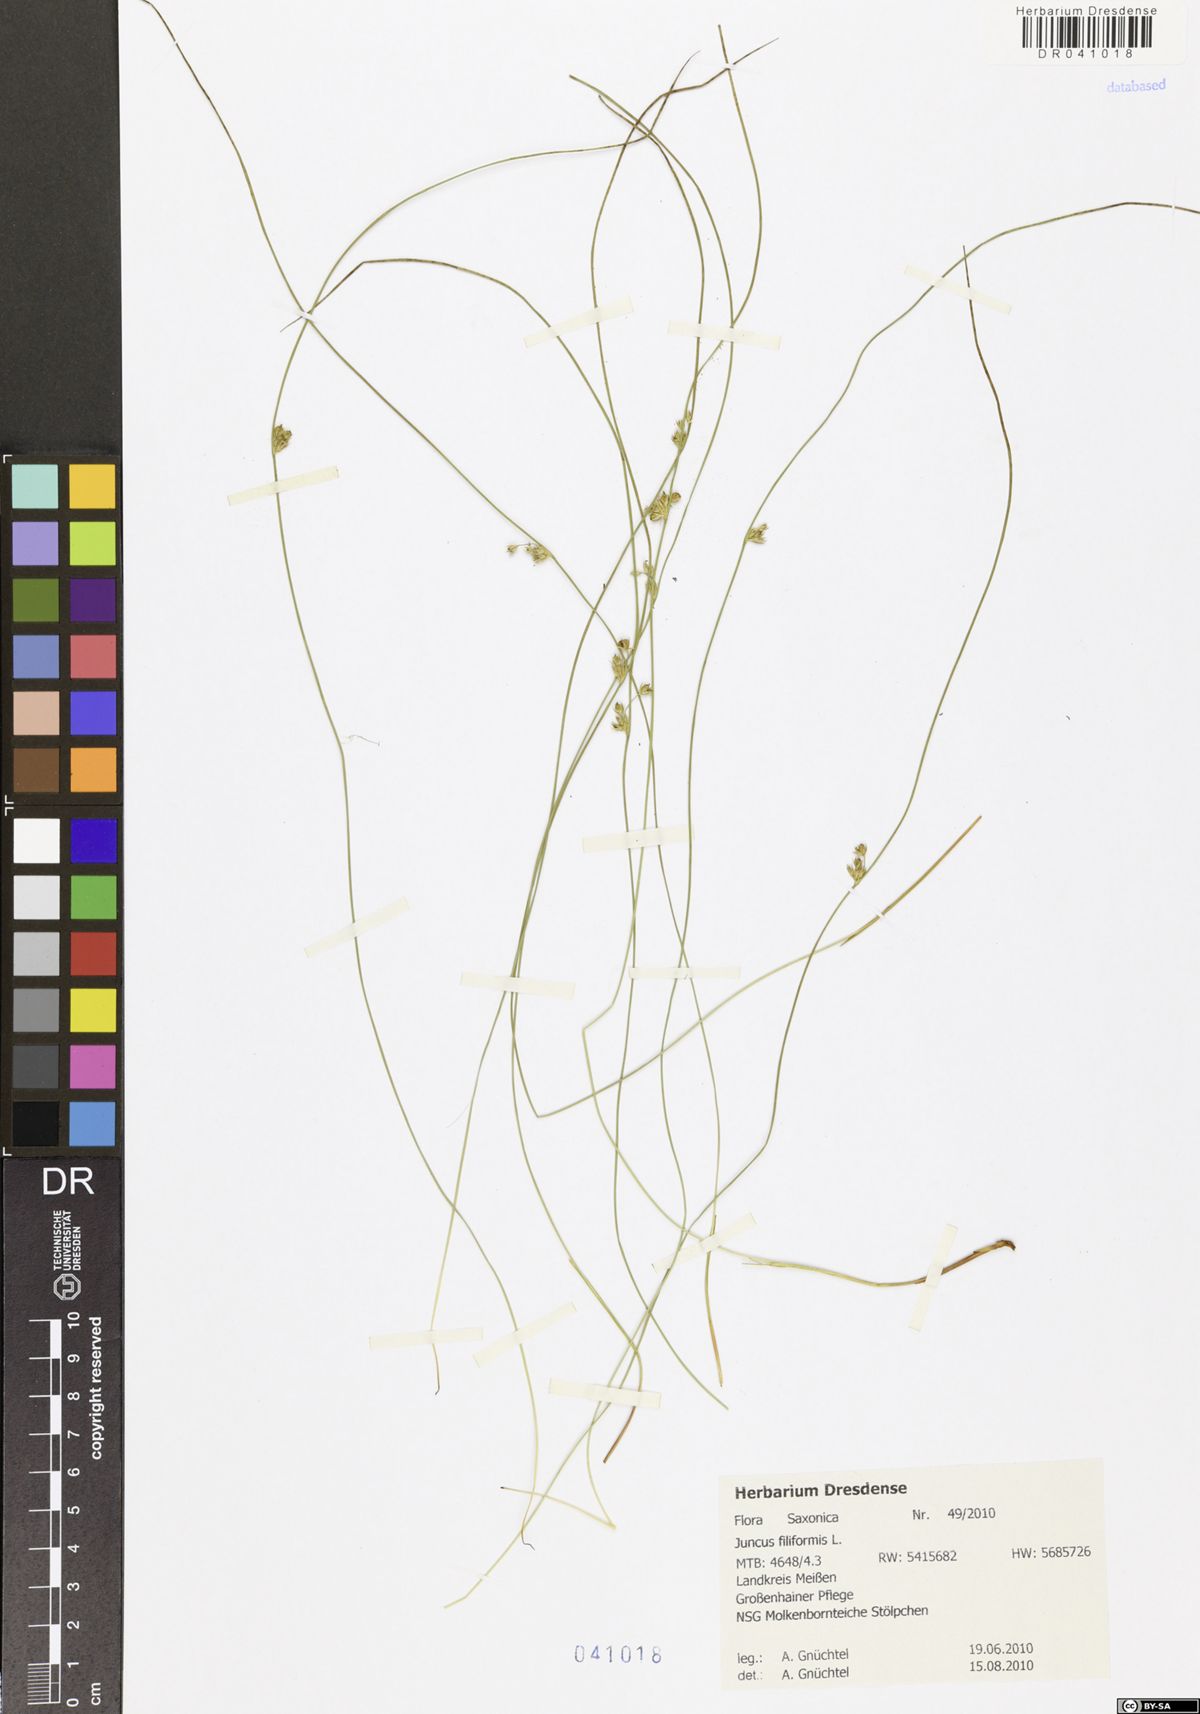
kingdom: Plantae
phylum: Tracheophyta
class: Liliopsida
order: Poales
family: Juncaceae
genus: Juncus
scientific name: Juncus inflexus
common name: Hard rush
